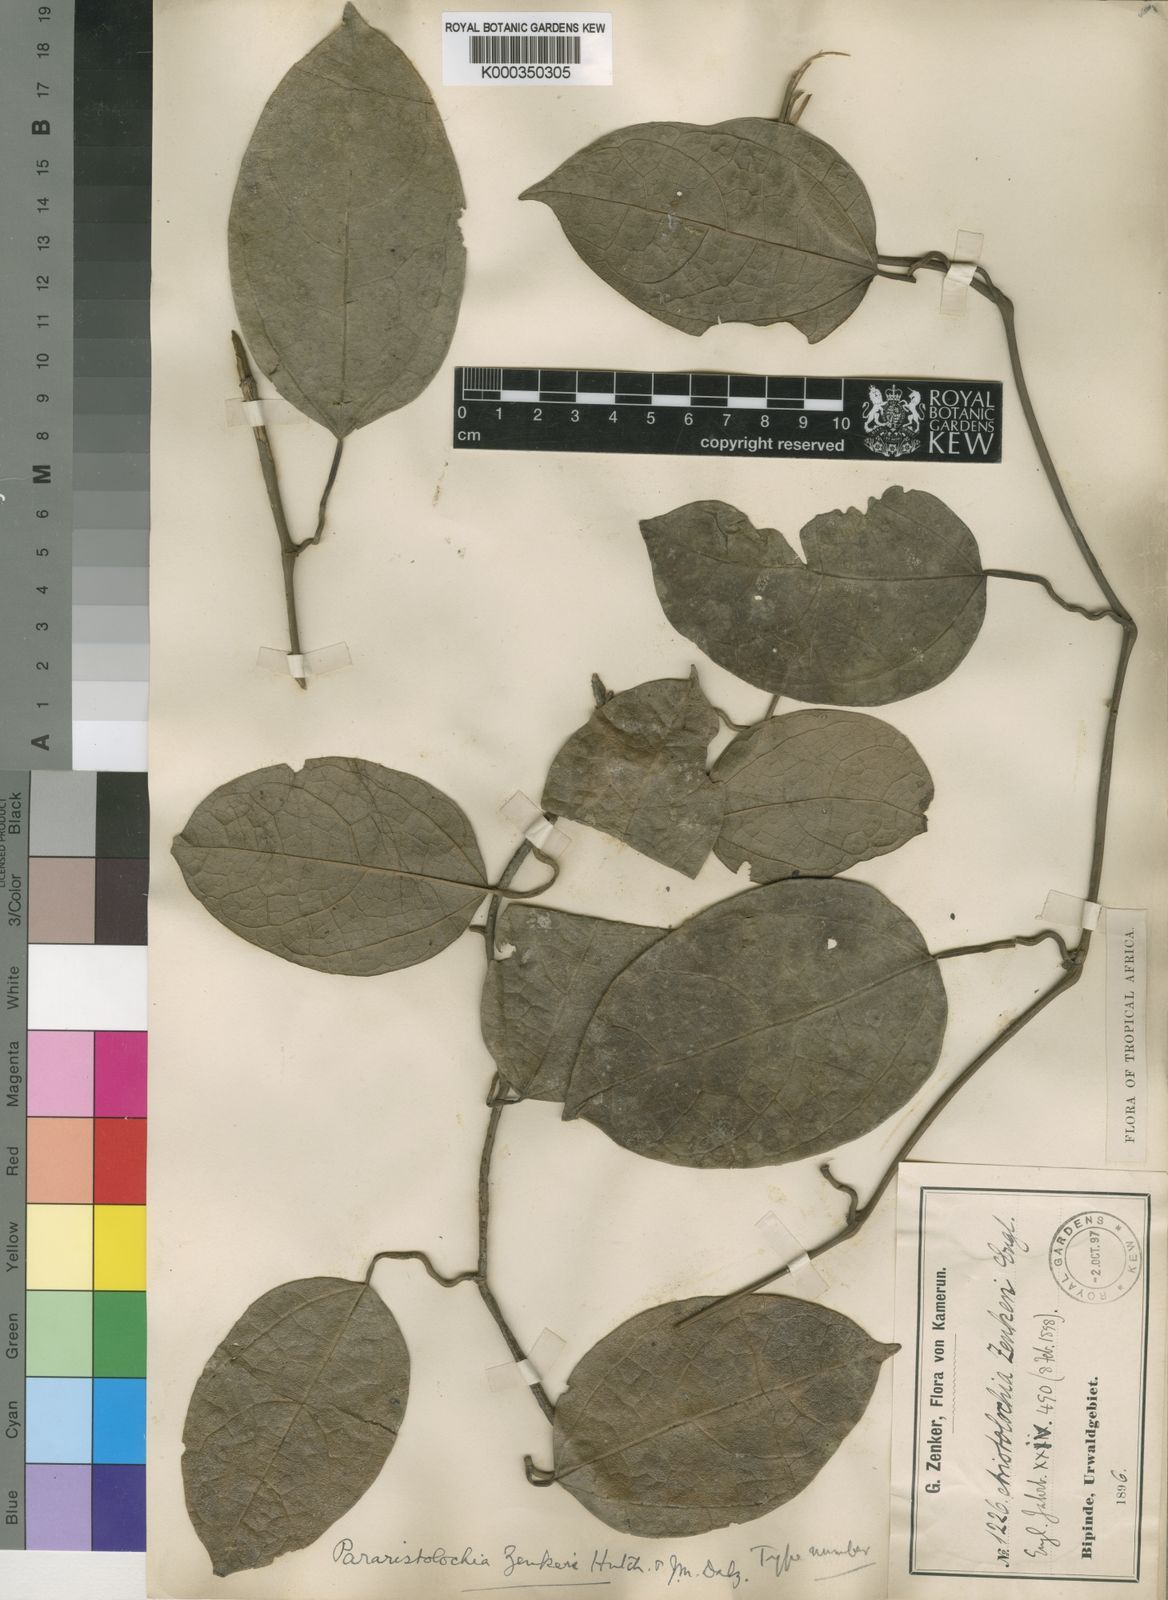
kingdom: Plantae
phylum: Tracheophyta
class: Magnoliopsida
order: Piperales
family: Aristolochiaceae
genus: Aristolochia
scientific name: Aristolochia zenkeri
